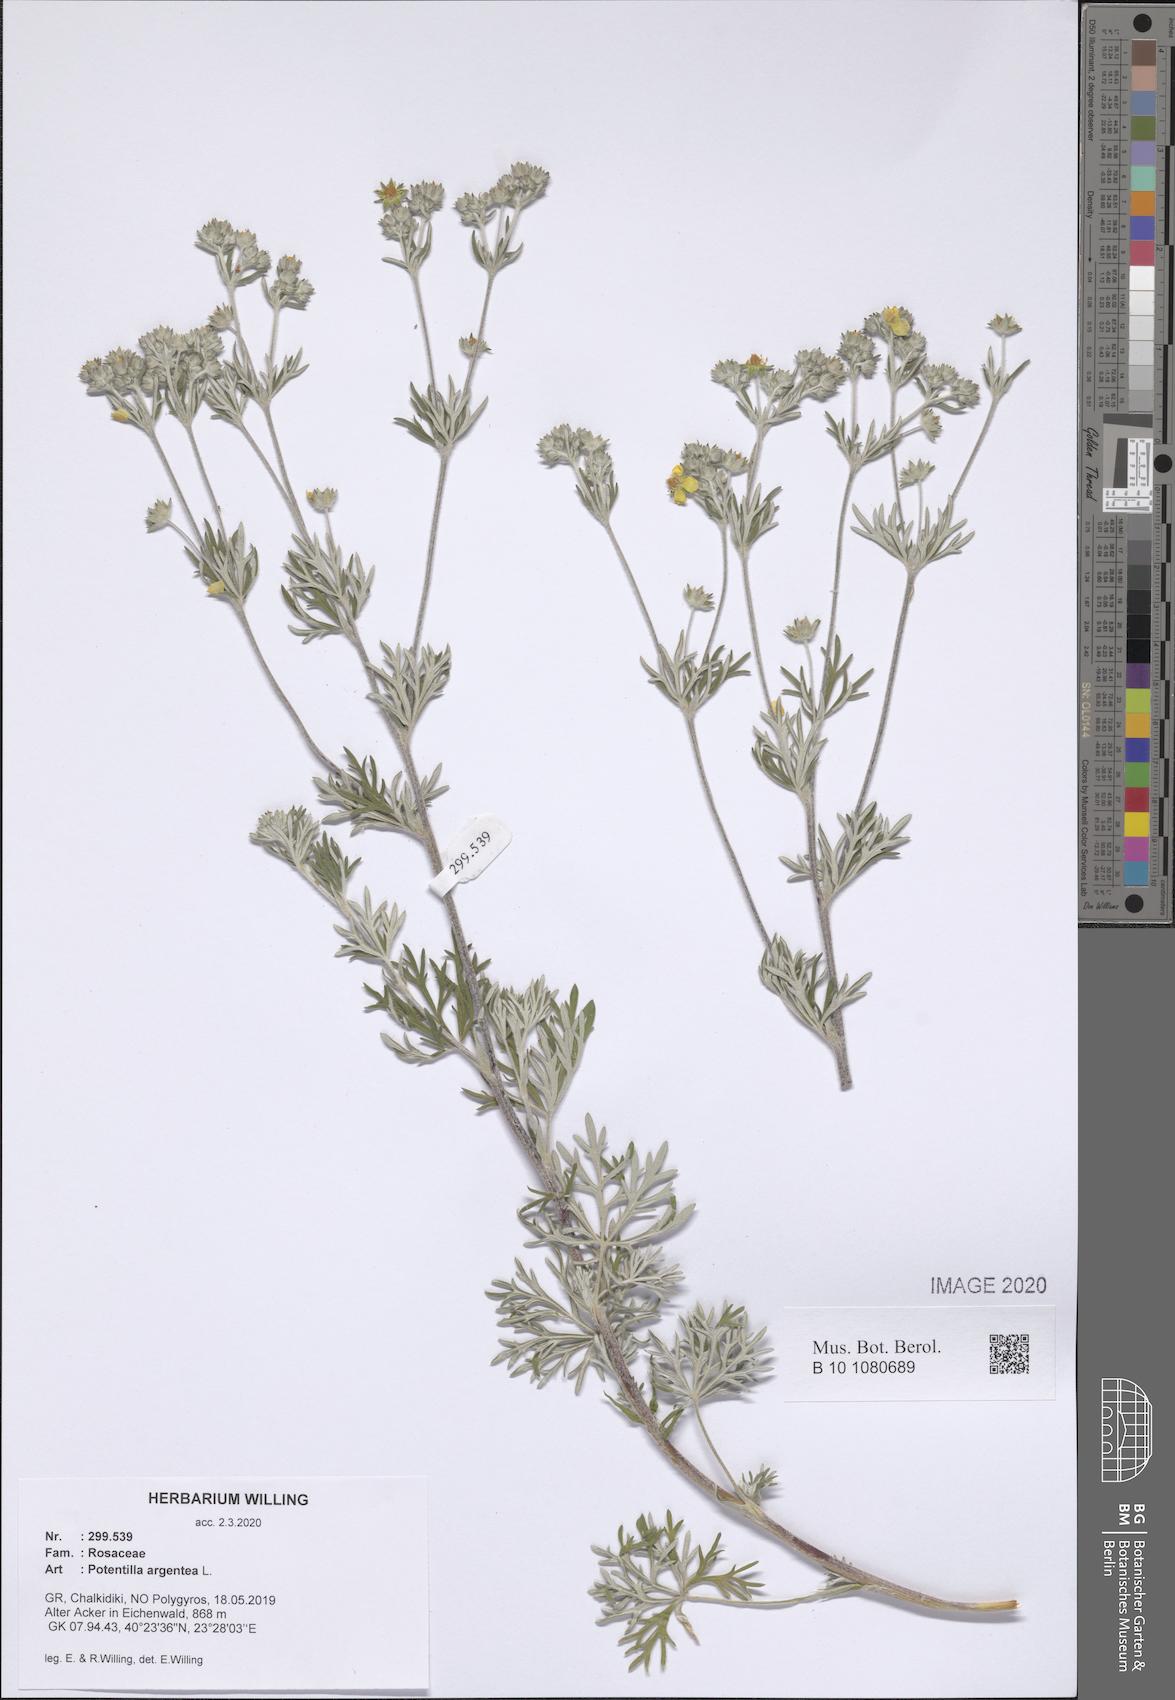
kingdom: Plantae
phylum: Tracheophyta
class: Magnoliopsida
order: Rosales
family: Rosaceae
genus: Potentilla
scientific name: Potentilla argentea
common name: Hoary cinquefoil
